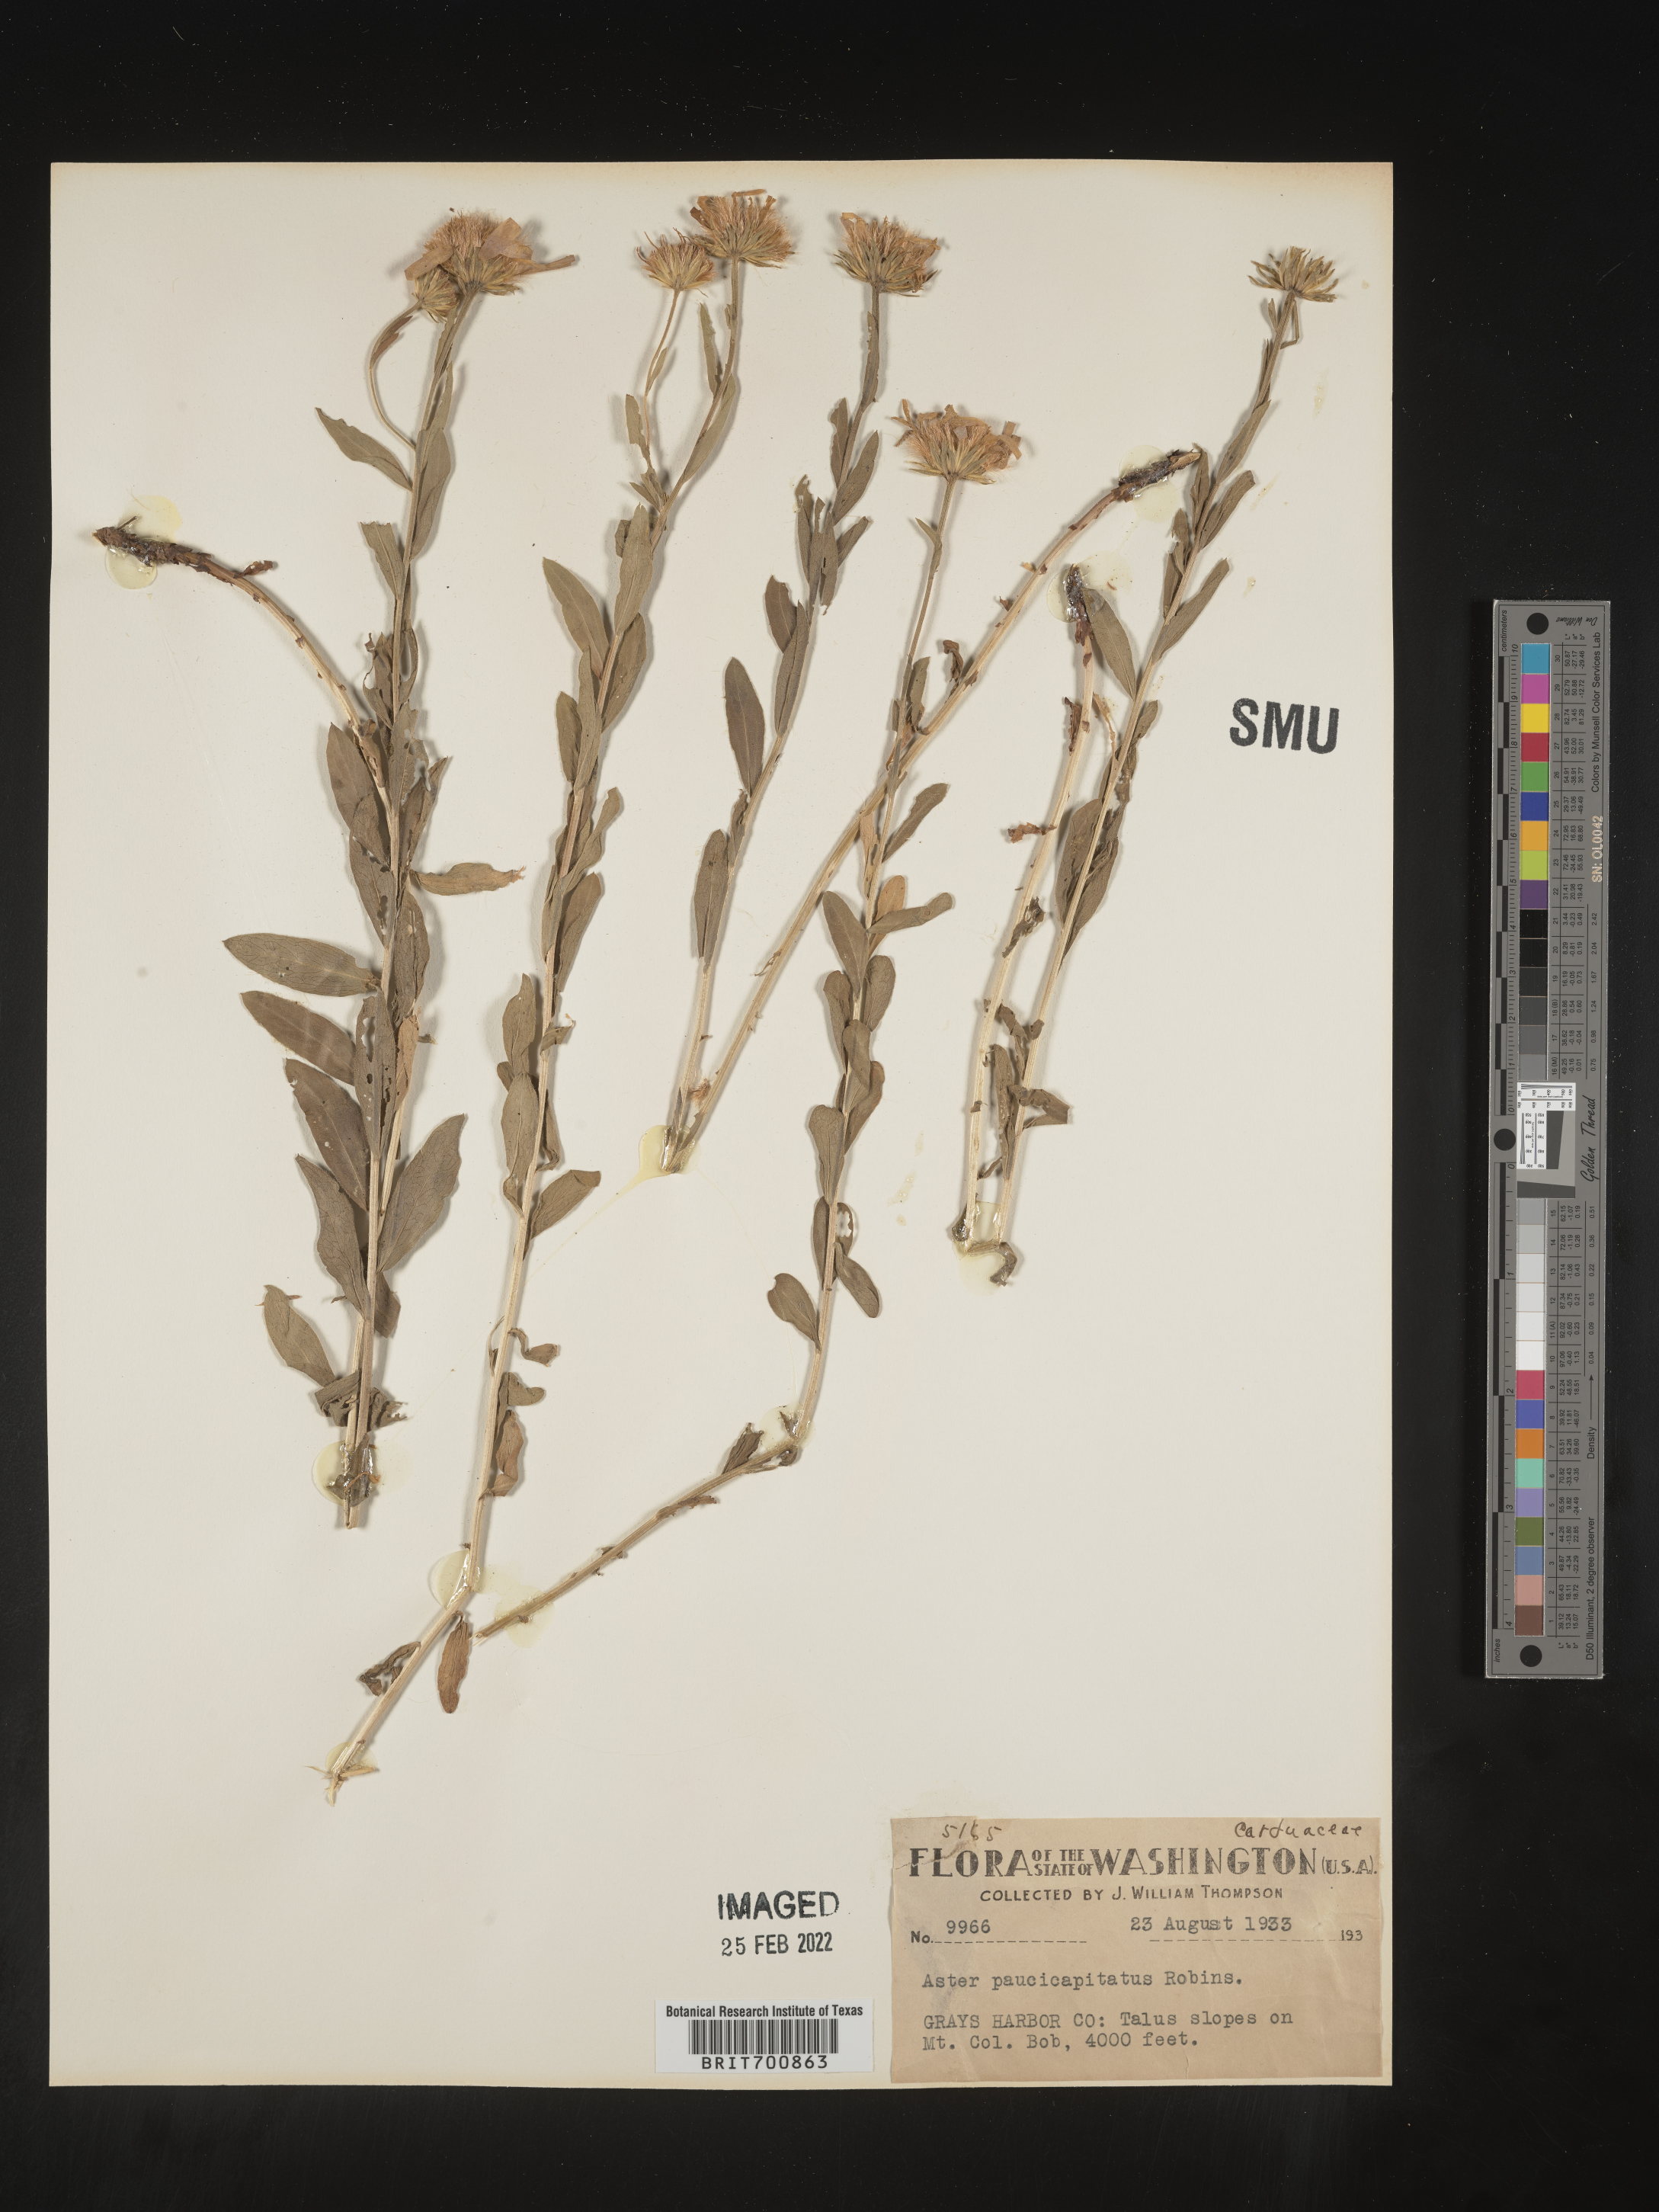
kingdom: Plantae
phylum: Tracheophyta
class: Magnoliopsida
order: Asterales
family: Asteraceae
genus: Eucephalus
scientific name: Eucephalus paucicapitatus
